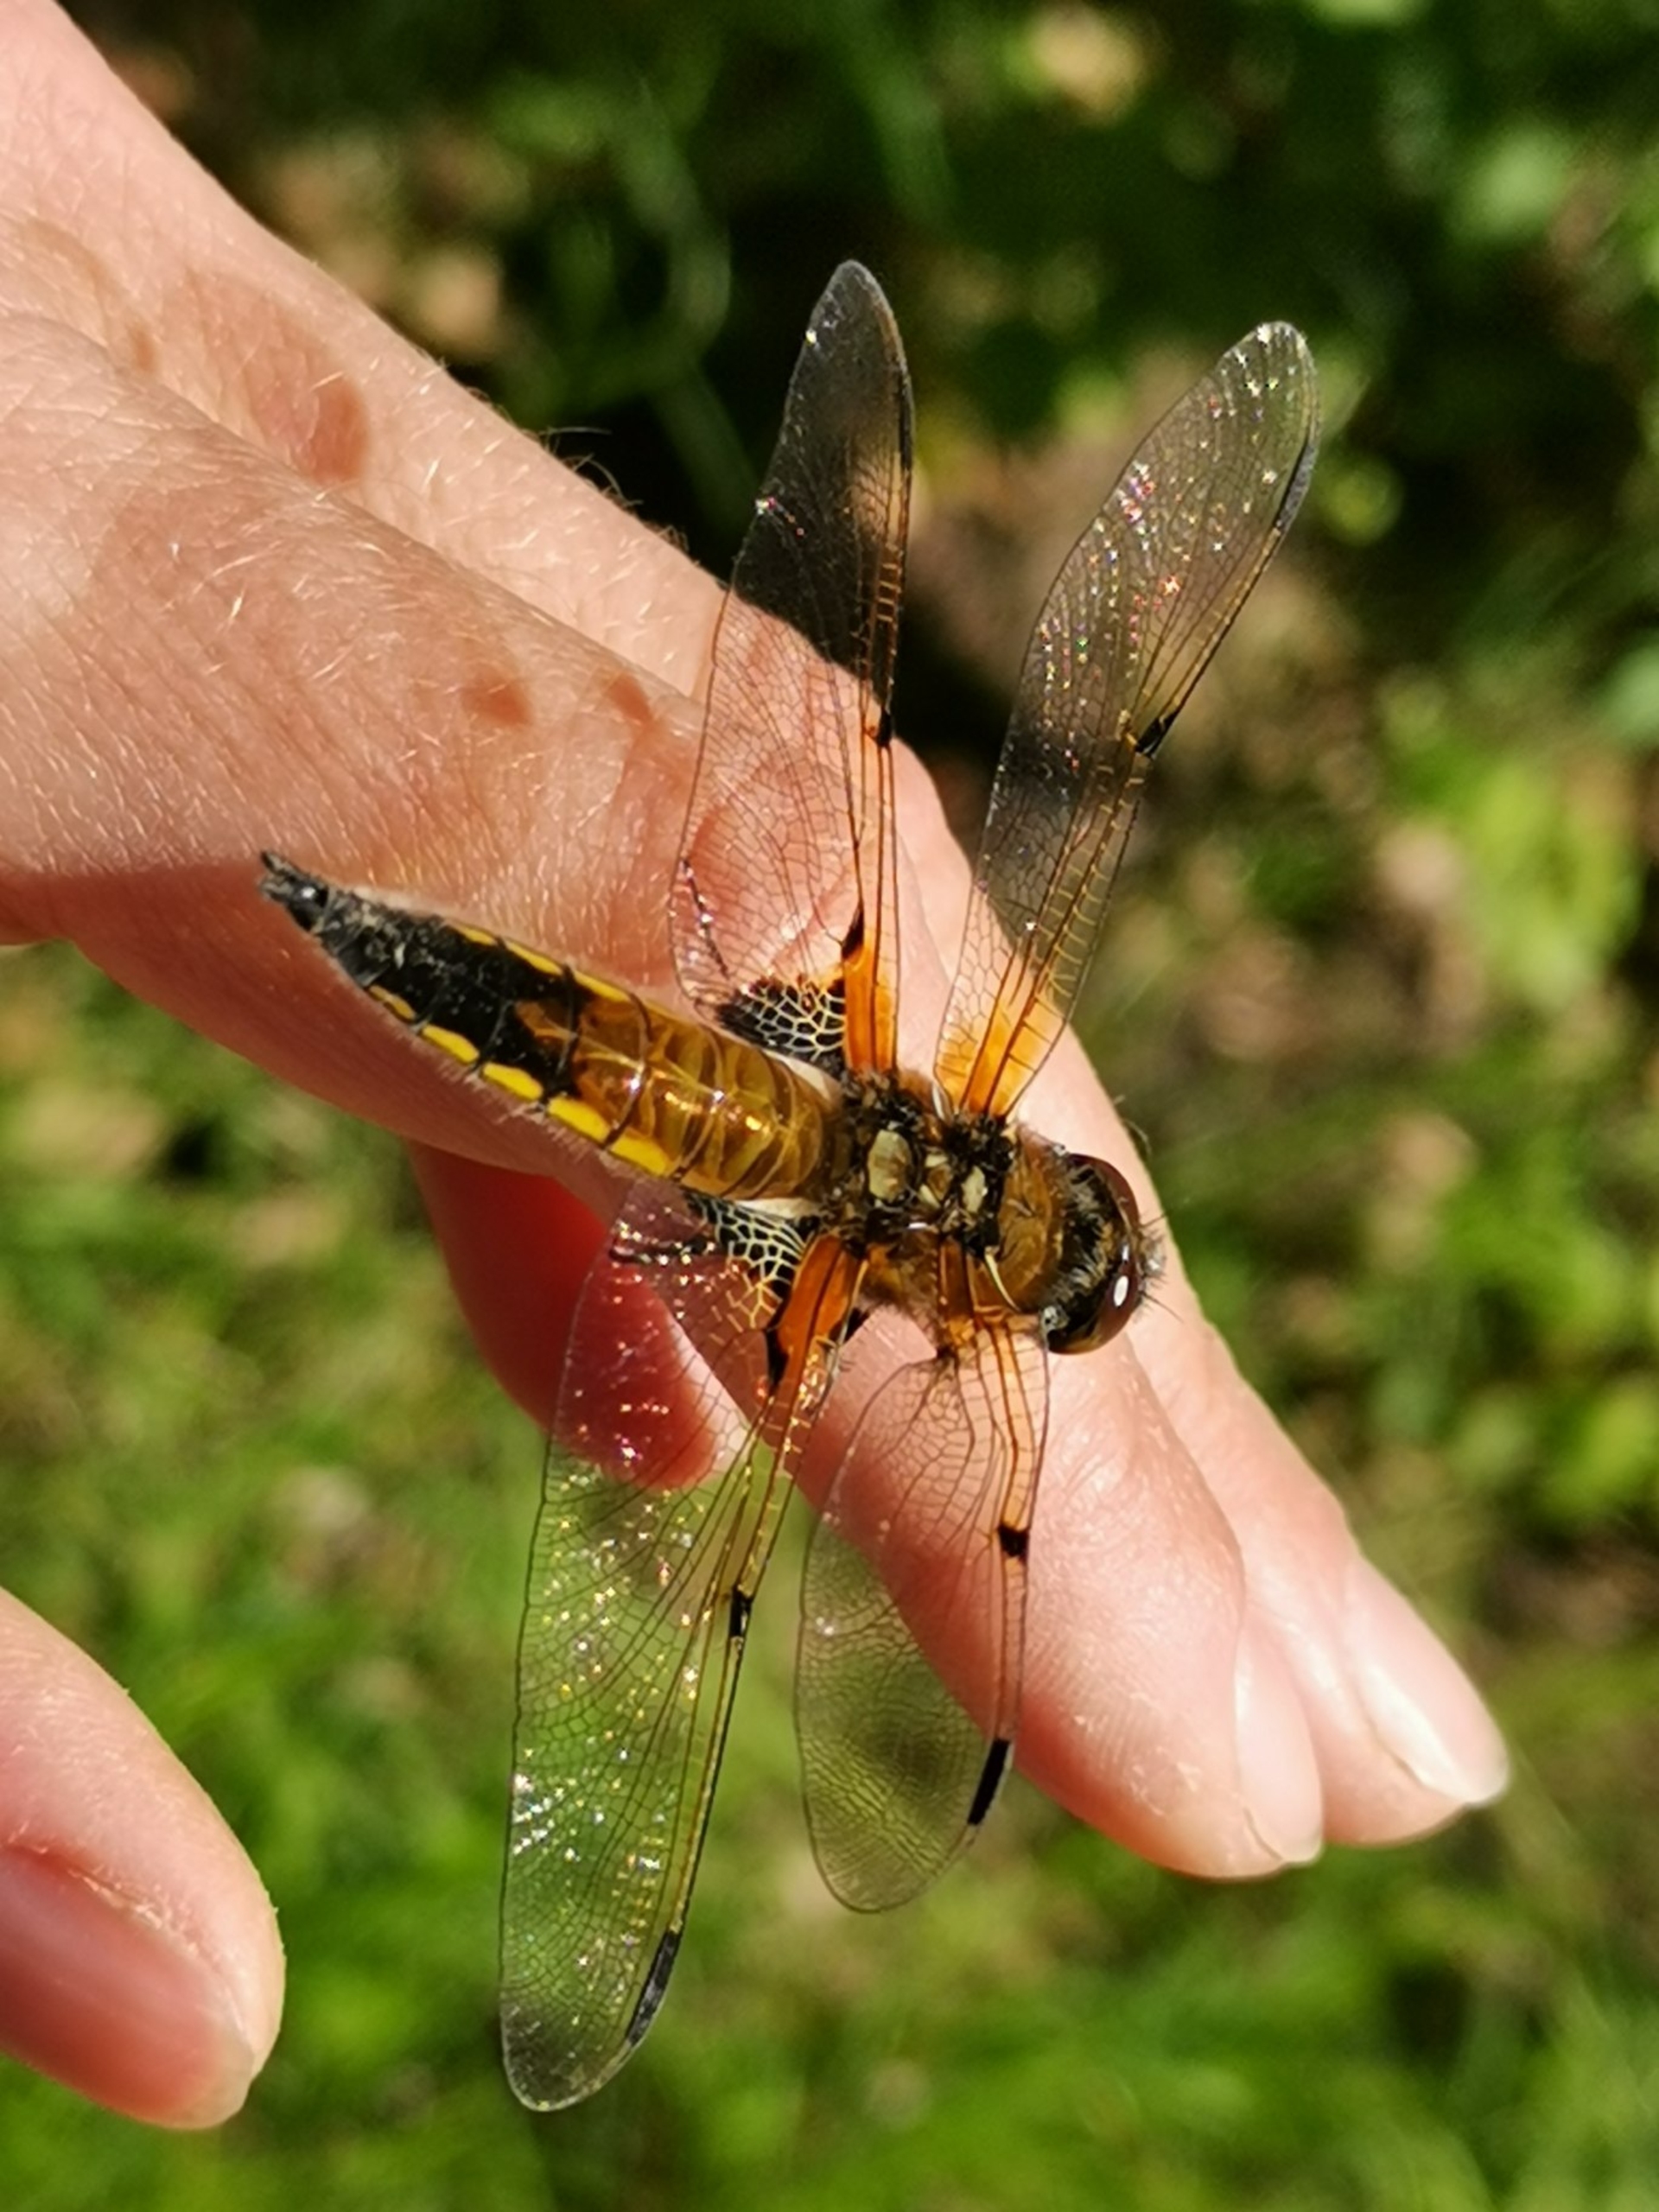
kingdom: Animalia
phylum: Arthropoda
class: Insecta
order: Odonata
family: Libellulidae
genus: Libellula
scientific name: Libellula quadrimaculata
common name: Fireplettet libel
